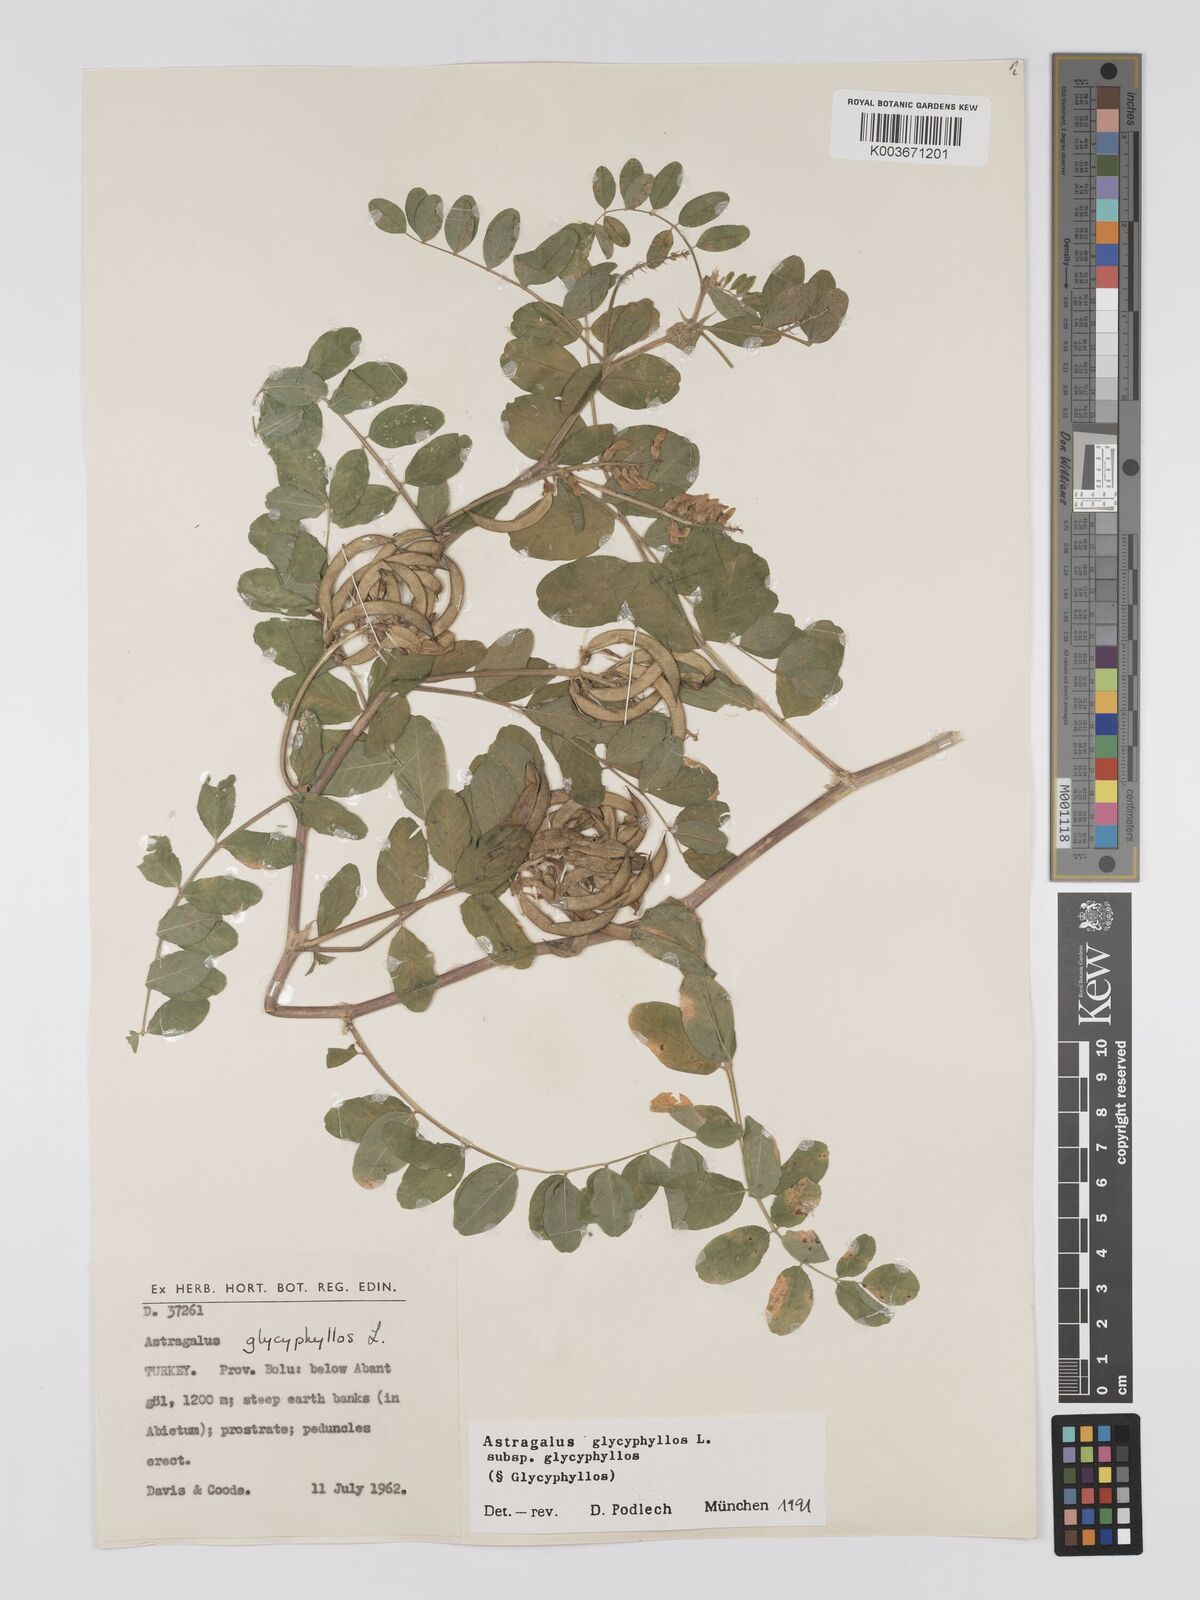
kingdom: Plantae
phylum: Tracheophyta
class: Magnoliopsida
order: Fabales
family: Fabaceae
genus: Astragalus
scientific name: Astragalus glycyphyllos
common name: Wild liquorice
